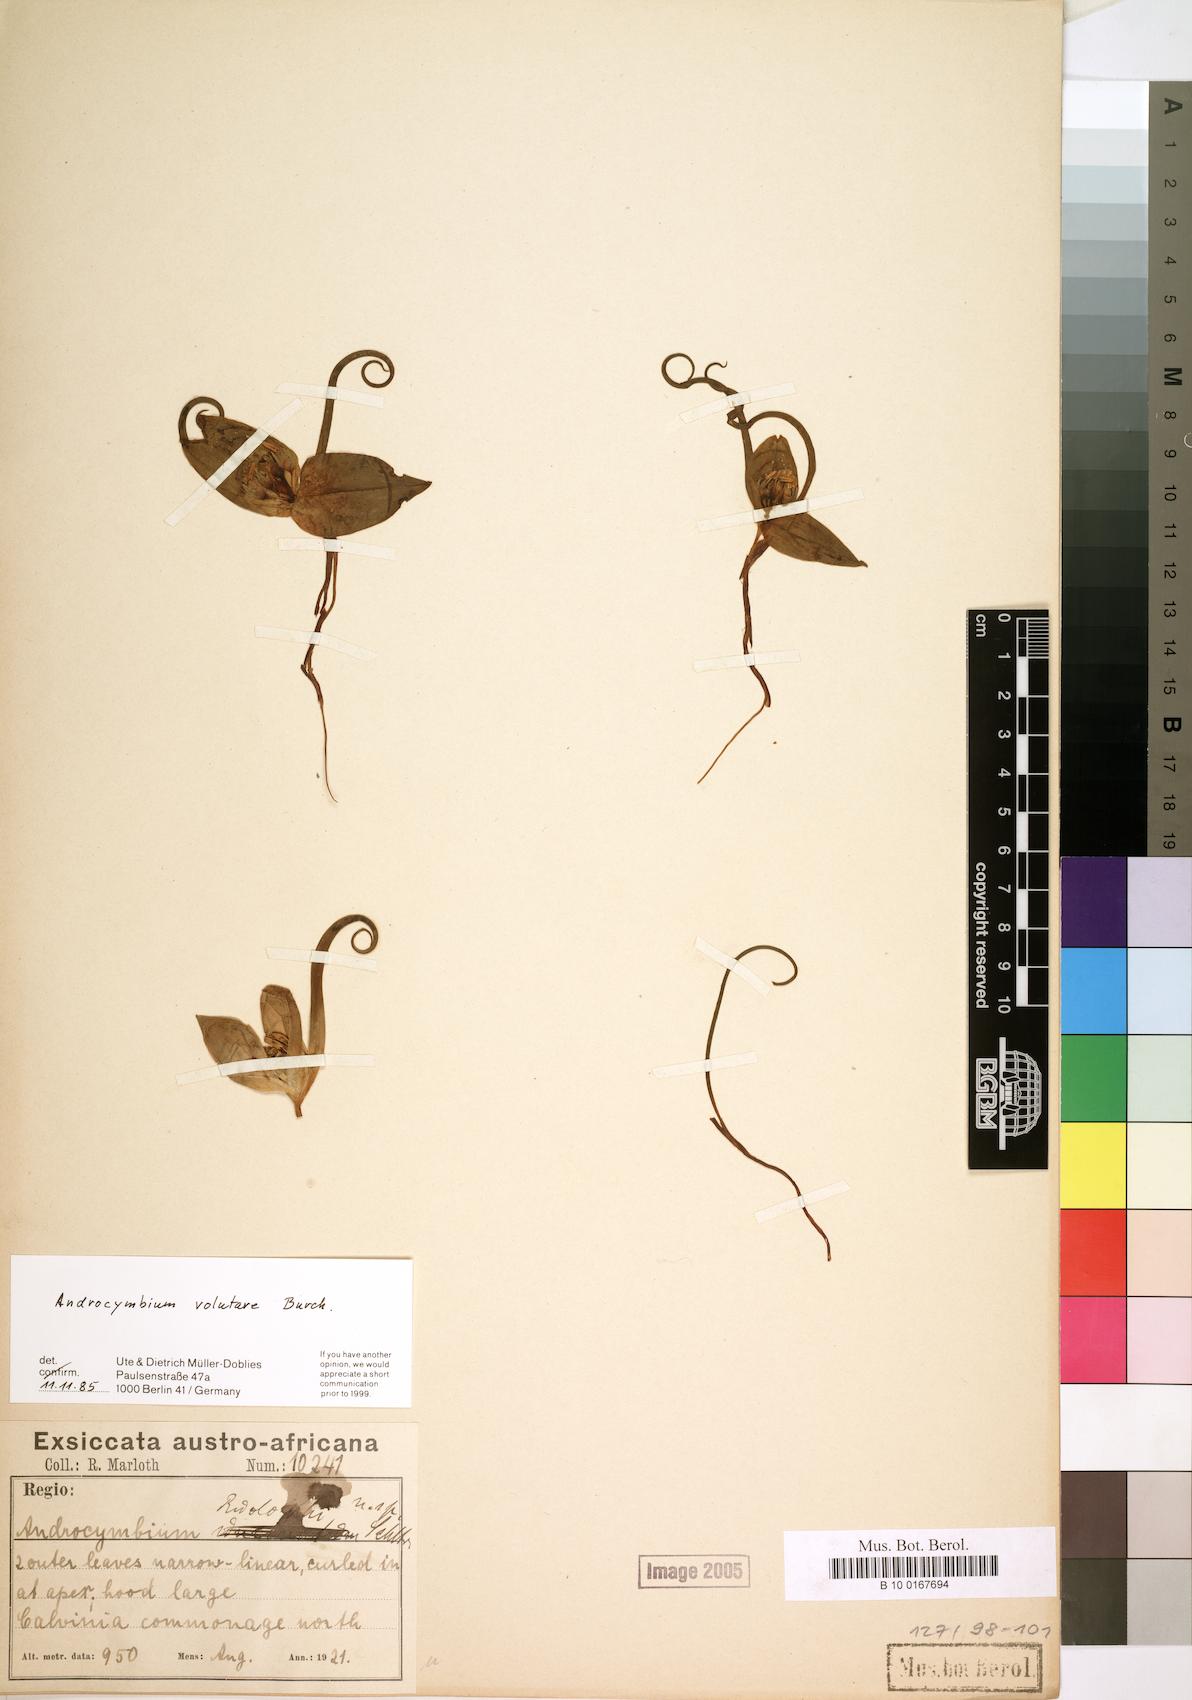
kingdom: Plantae
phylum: Tracheophyta
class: Liliopsida
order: Liliales
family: Colchicaceae
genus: Colchicum
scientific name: Colchicum volutare
